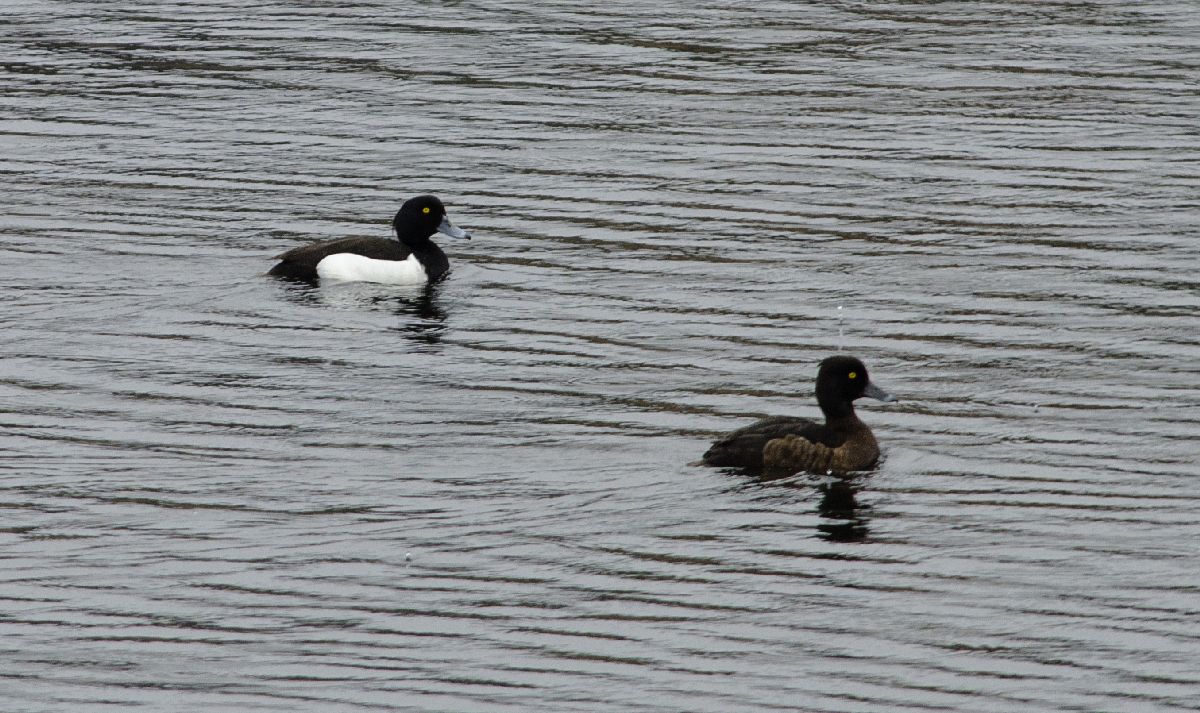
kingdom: Animalia
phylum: Chordata
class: Aves
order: Anseriformes
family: Anatidae
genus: Aythya
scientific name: Aythya fuligula
